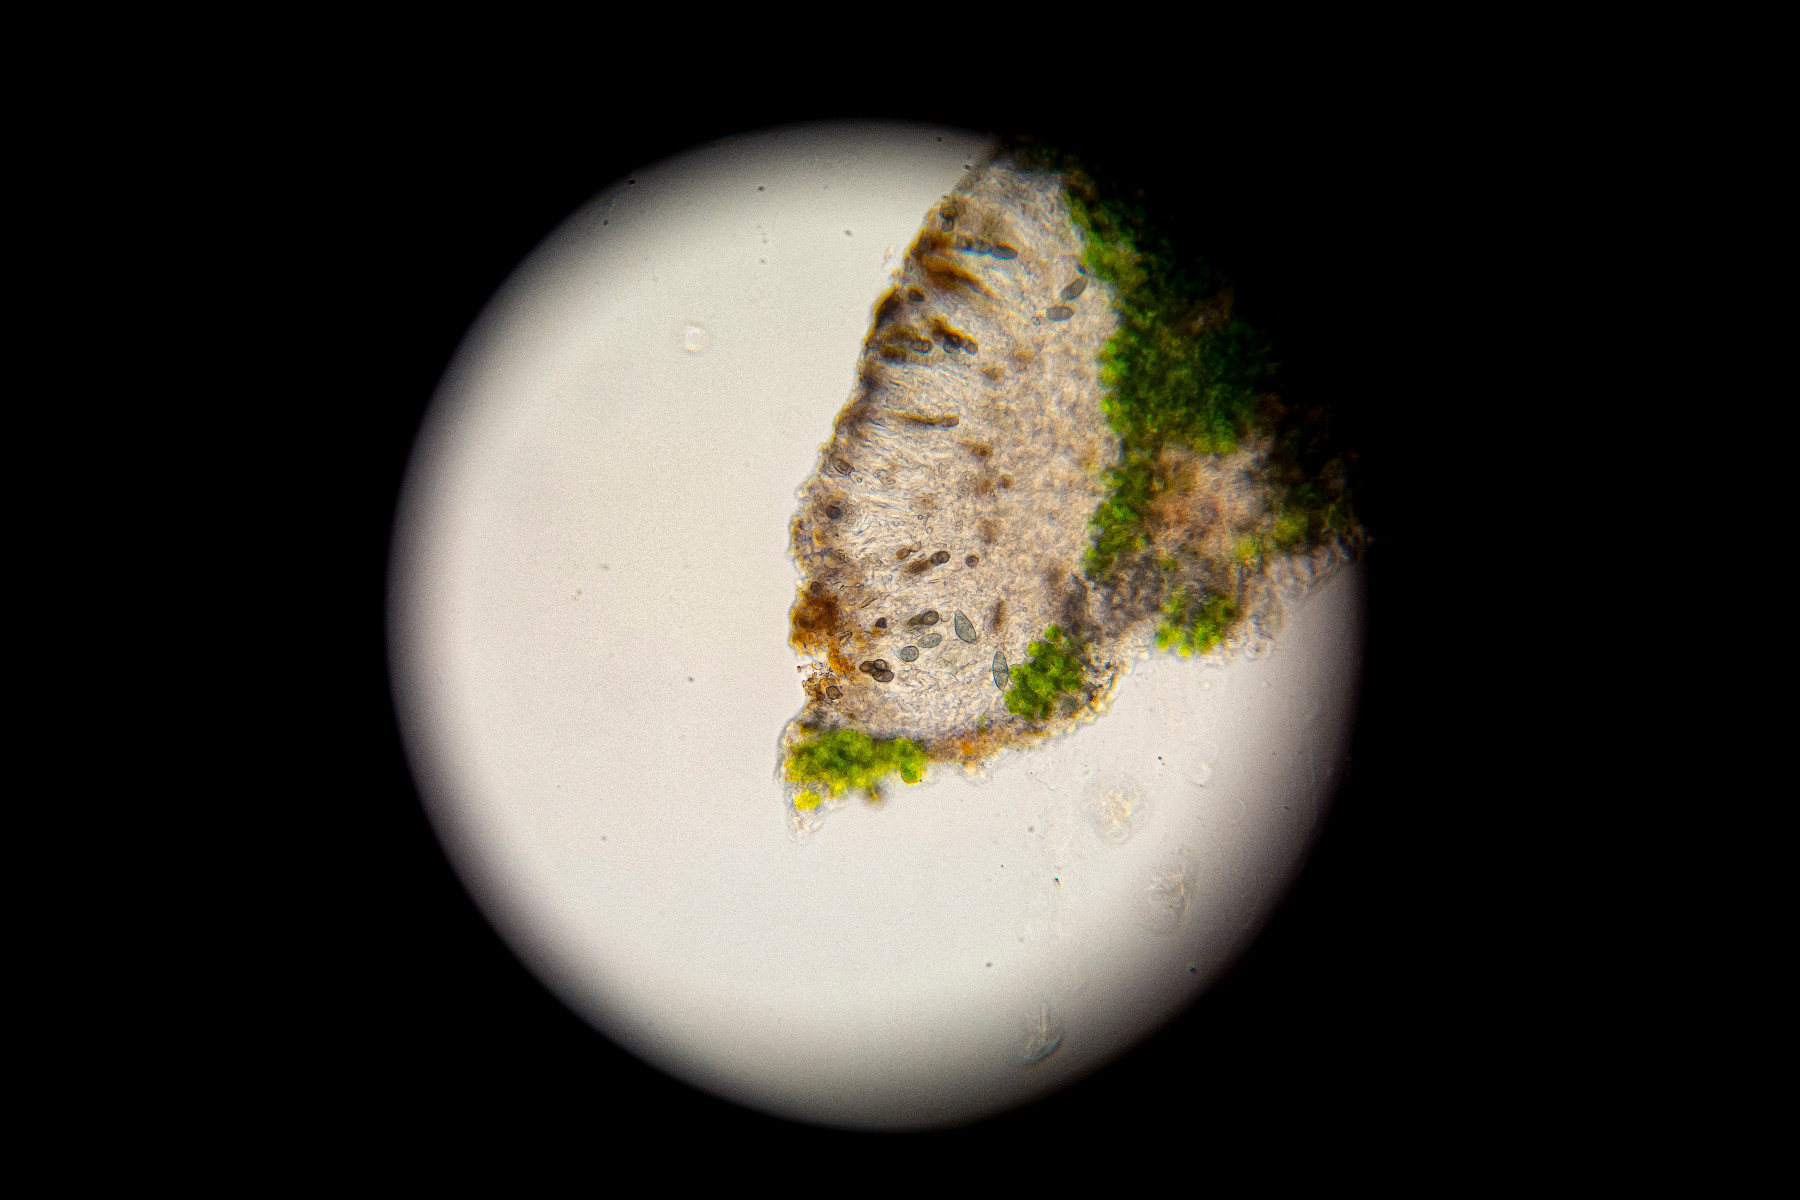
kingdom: Fungi
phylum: Ascomycota
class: Lecanoromycetes
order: Caliciales
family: Physciaceae
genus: Rinodina
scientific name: Rinodina pityrea
